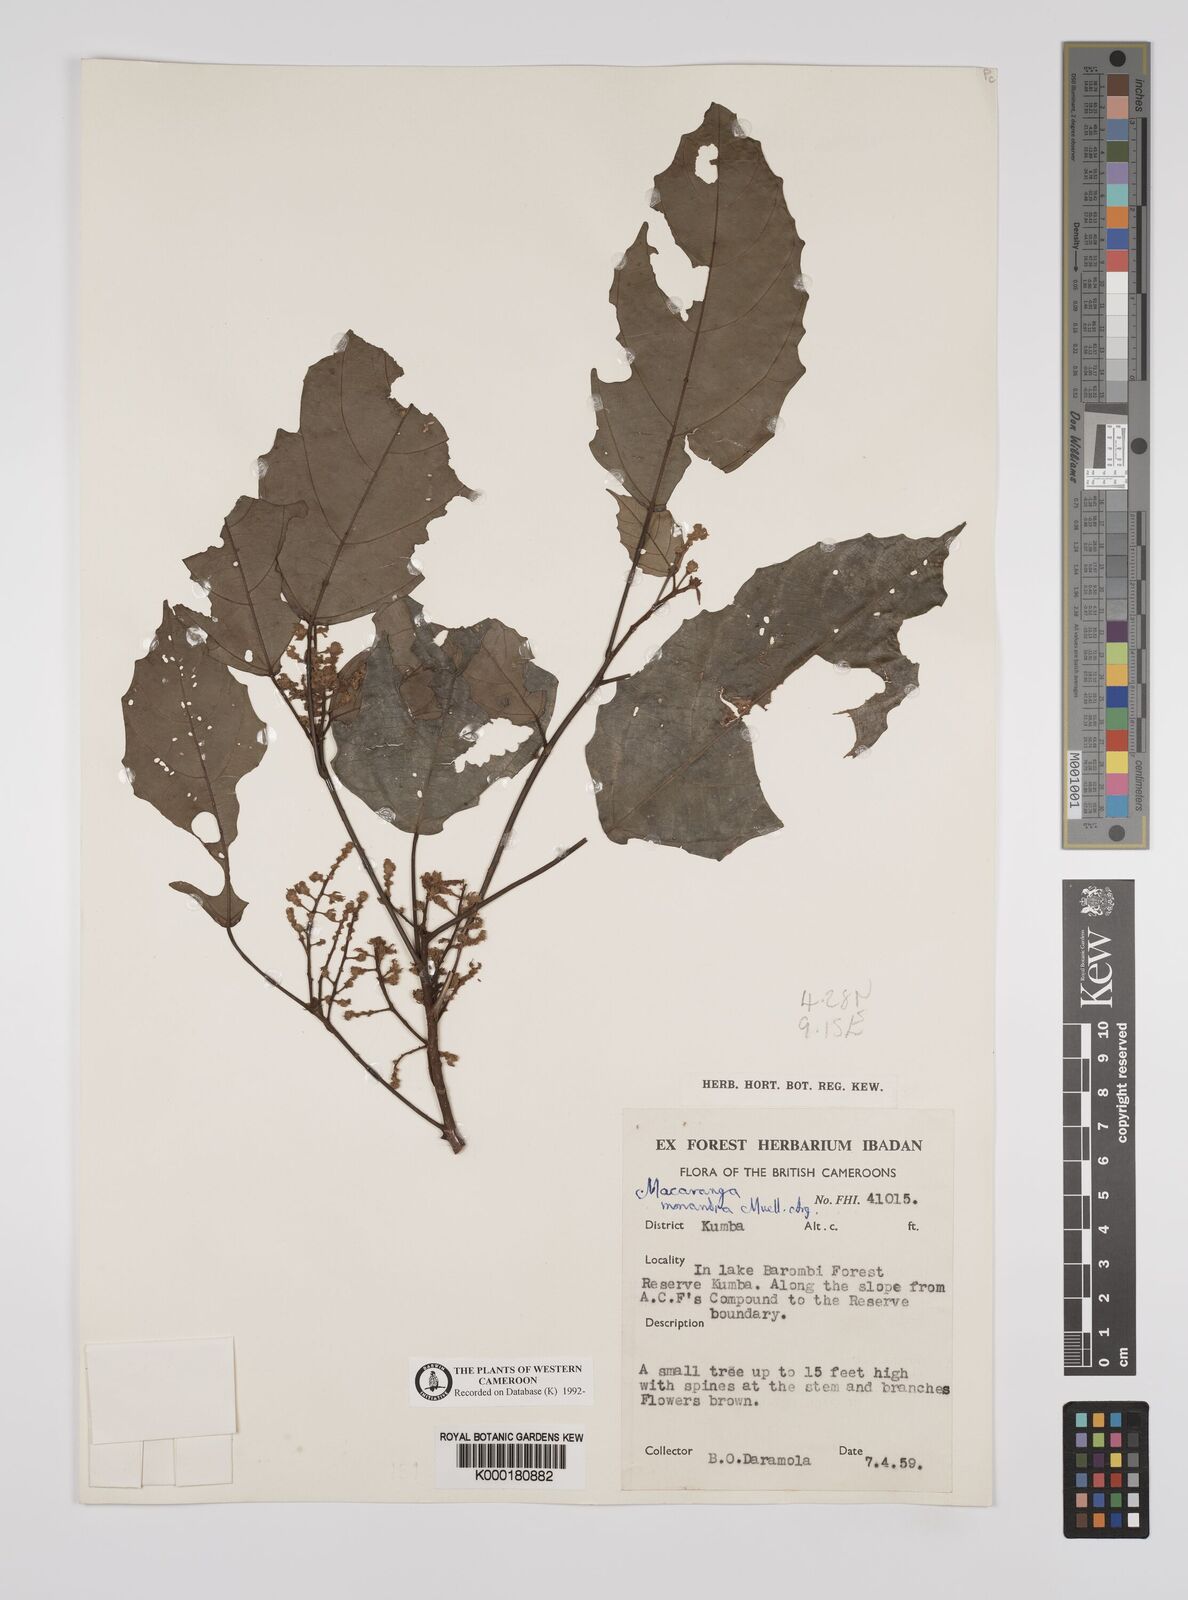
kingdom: Plantae
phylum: Tracheophyta
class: Magnoliopsida
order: Malpighiales
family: Euphorbiaceae
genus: Macaranga
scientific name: Macaranga
